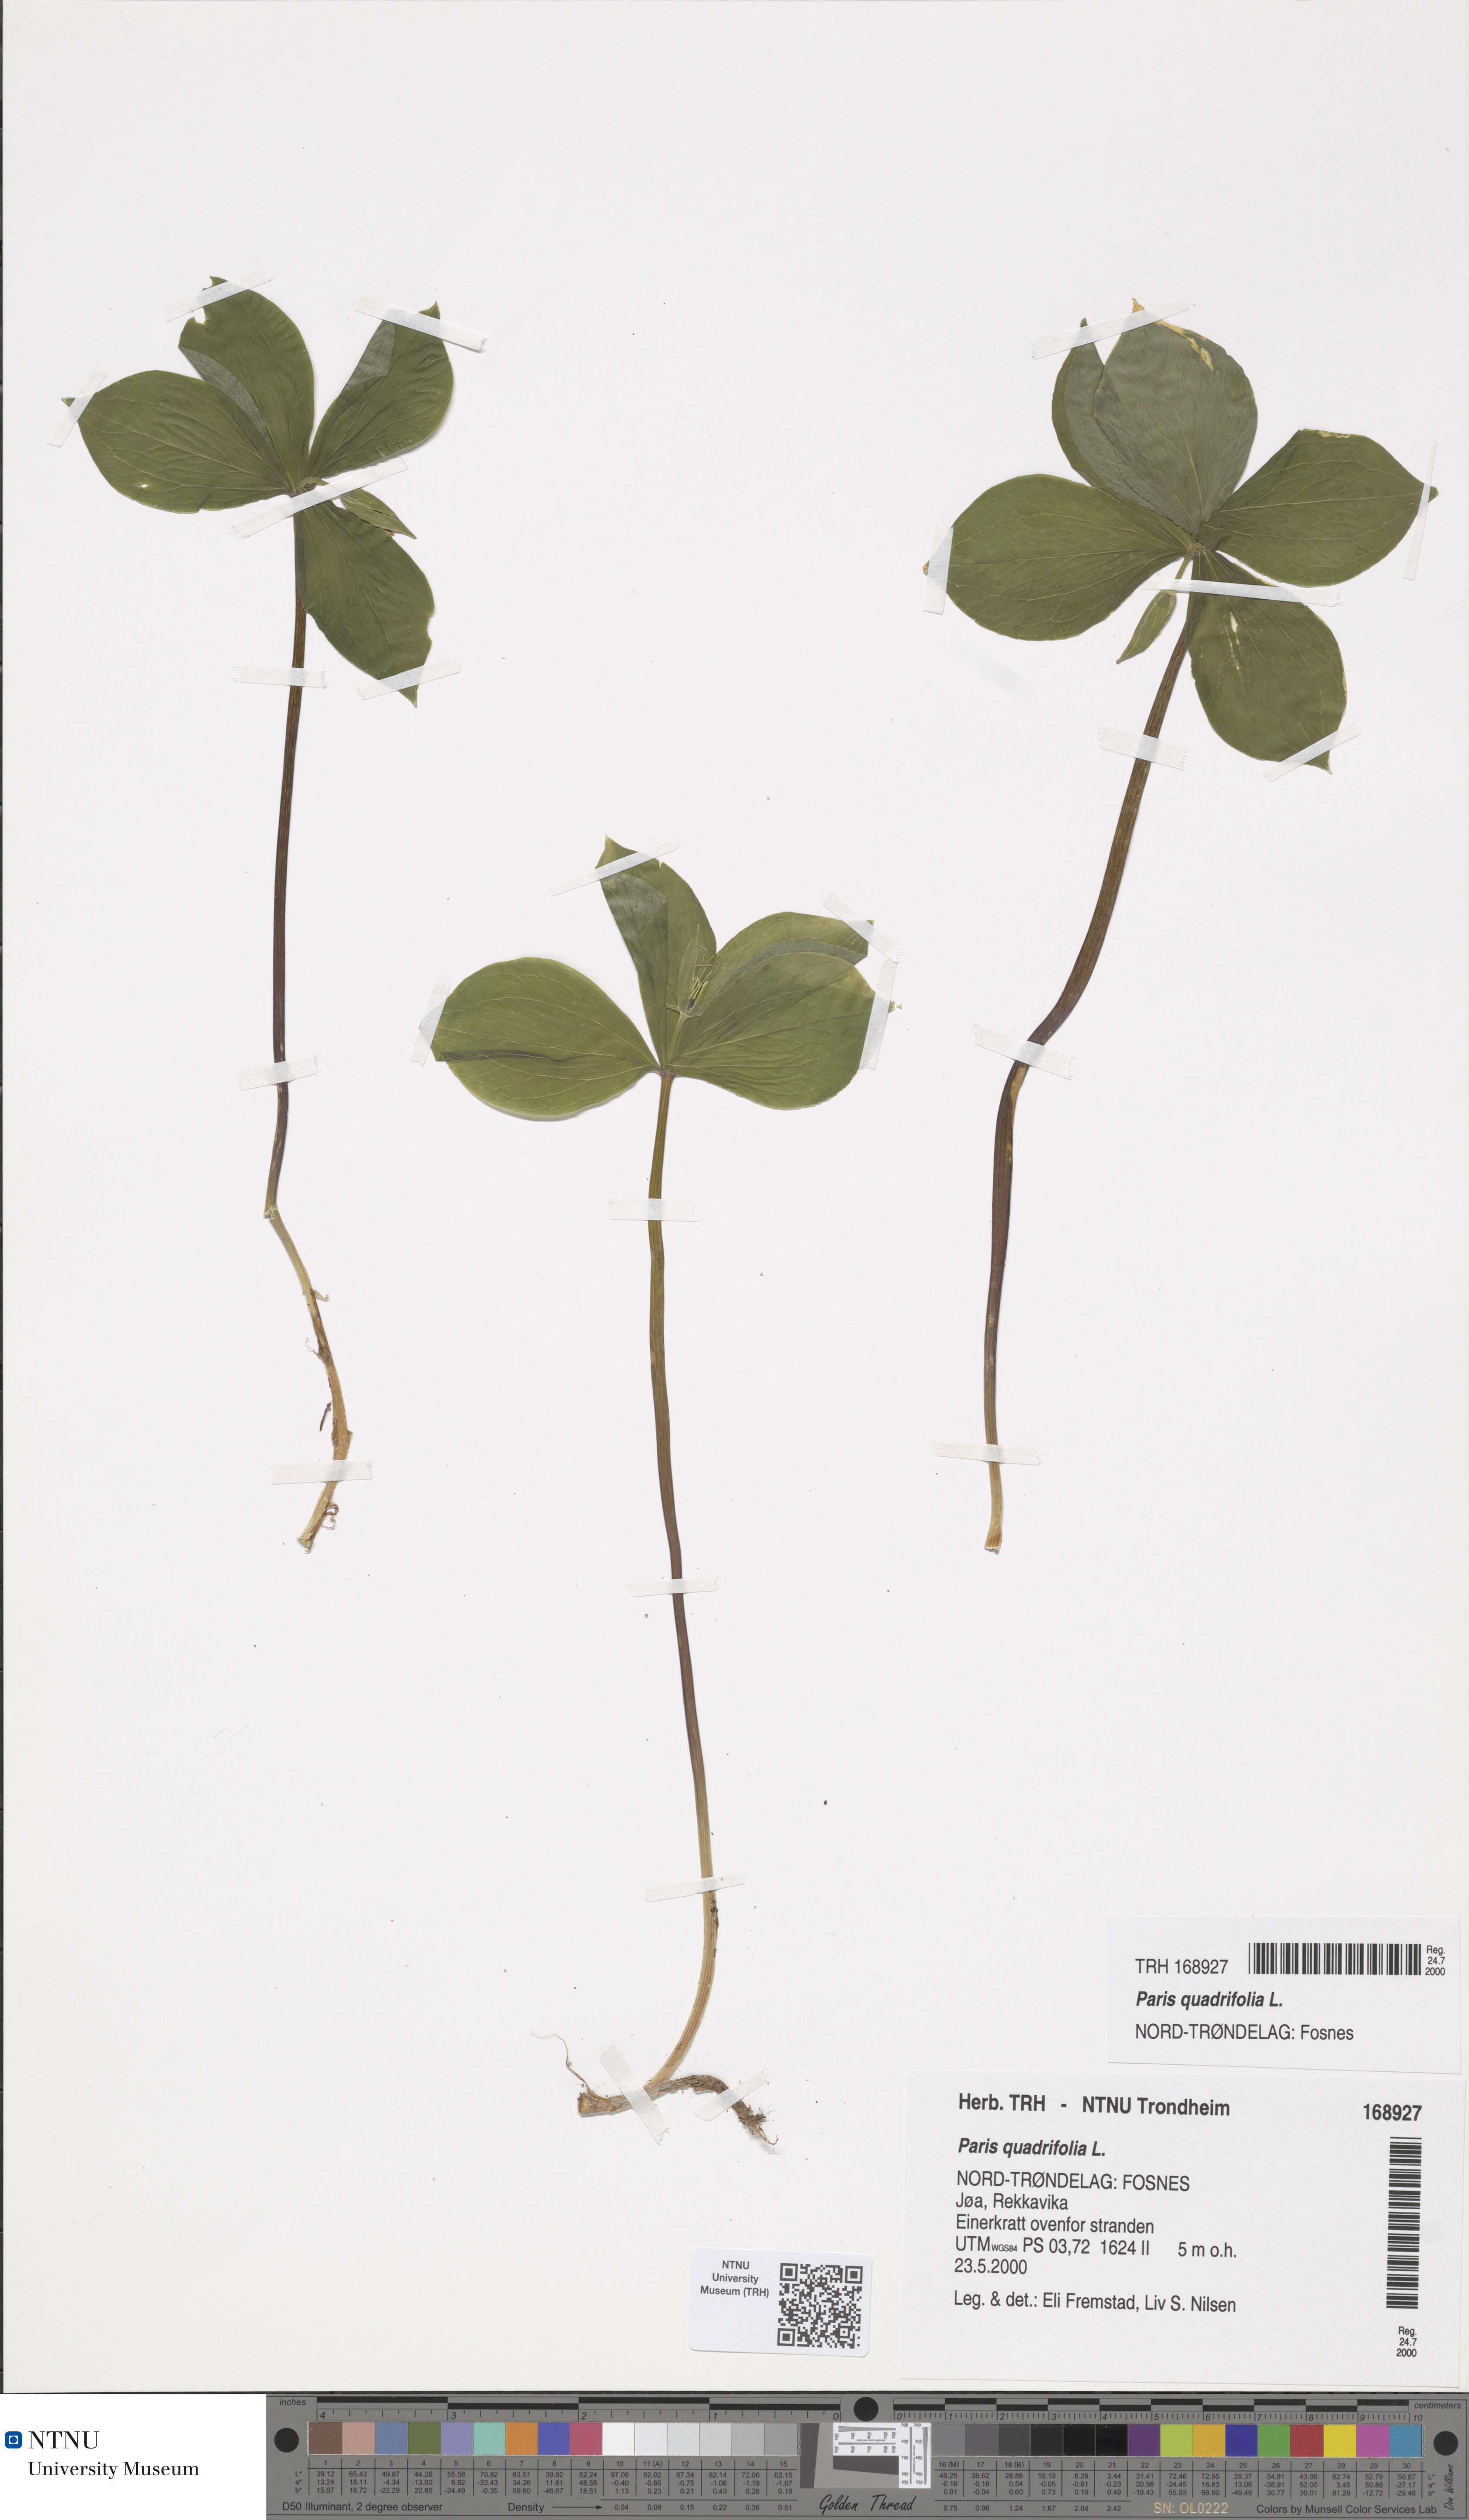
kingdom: Plantae
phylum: Tracheophyta
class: Liliopsida
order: Liliales
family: Melanthiaceae
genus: Paris
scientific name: Paris quadrifolia
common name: Herb-paris
